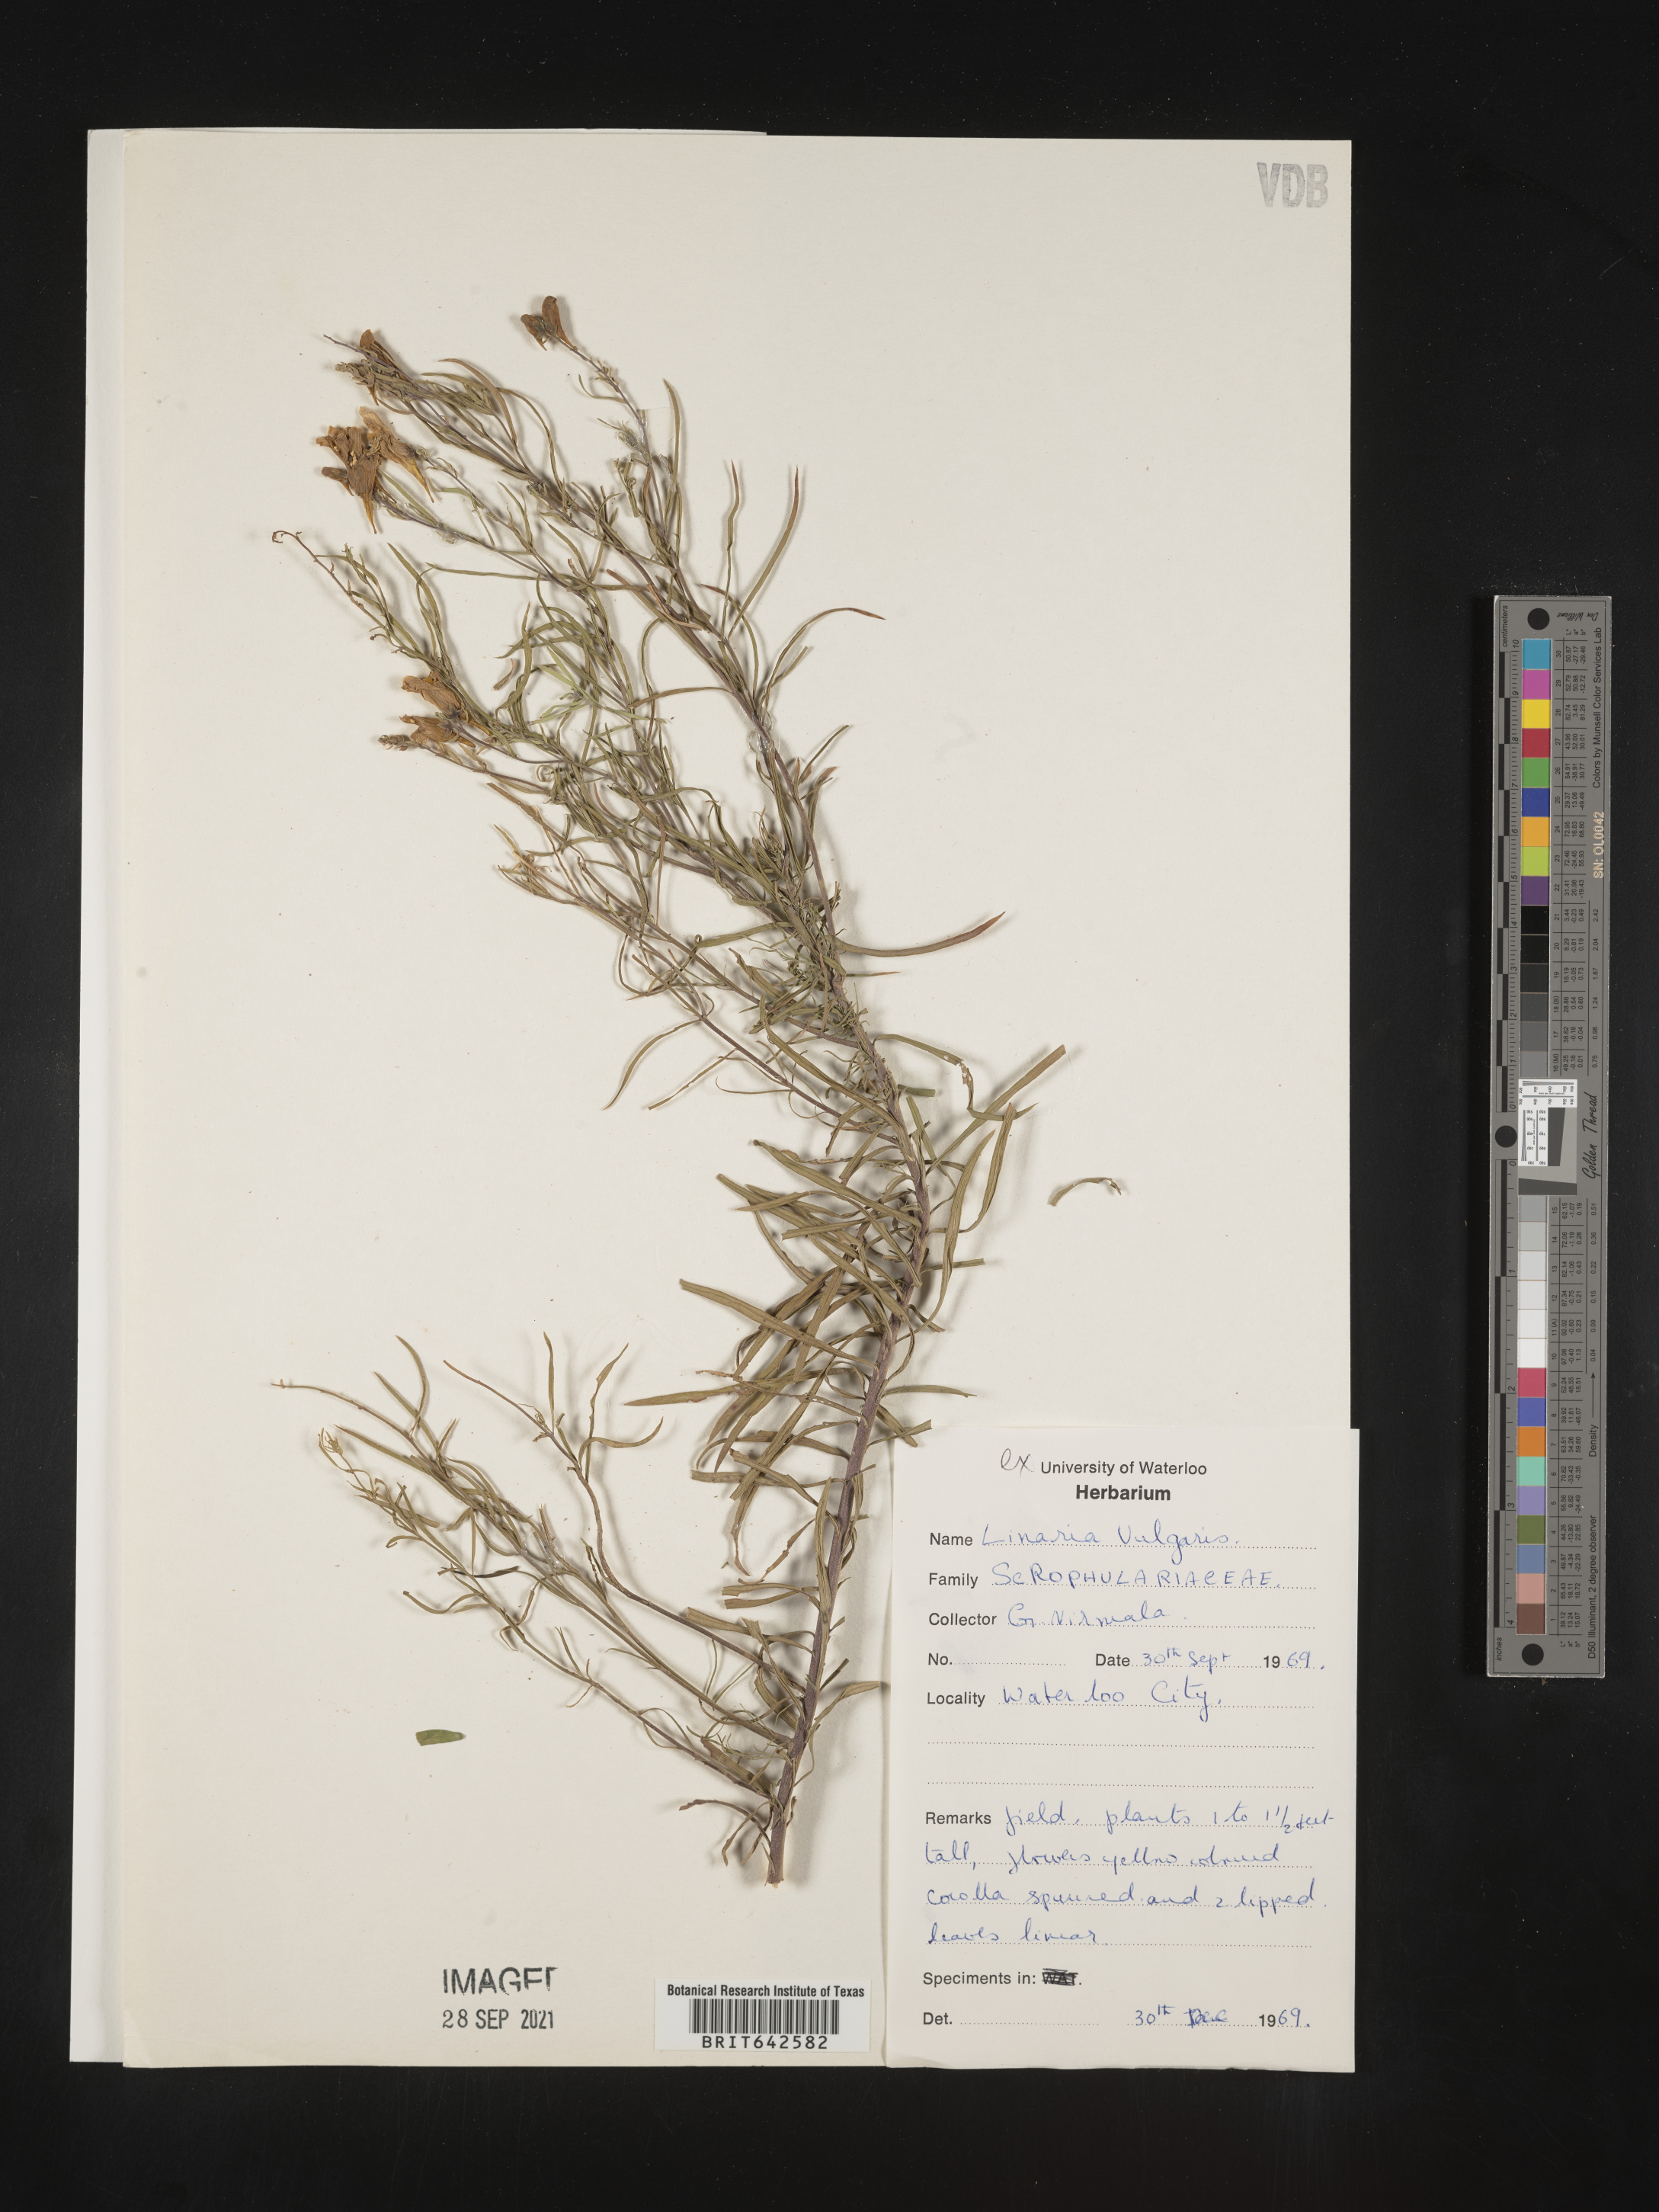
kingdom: Plantae
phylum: Tracheophyta
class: Magnoliopsida
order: Lamiales
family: Plantaginaceae
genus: Linaria
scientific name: Linaria
